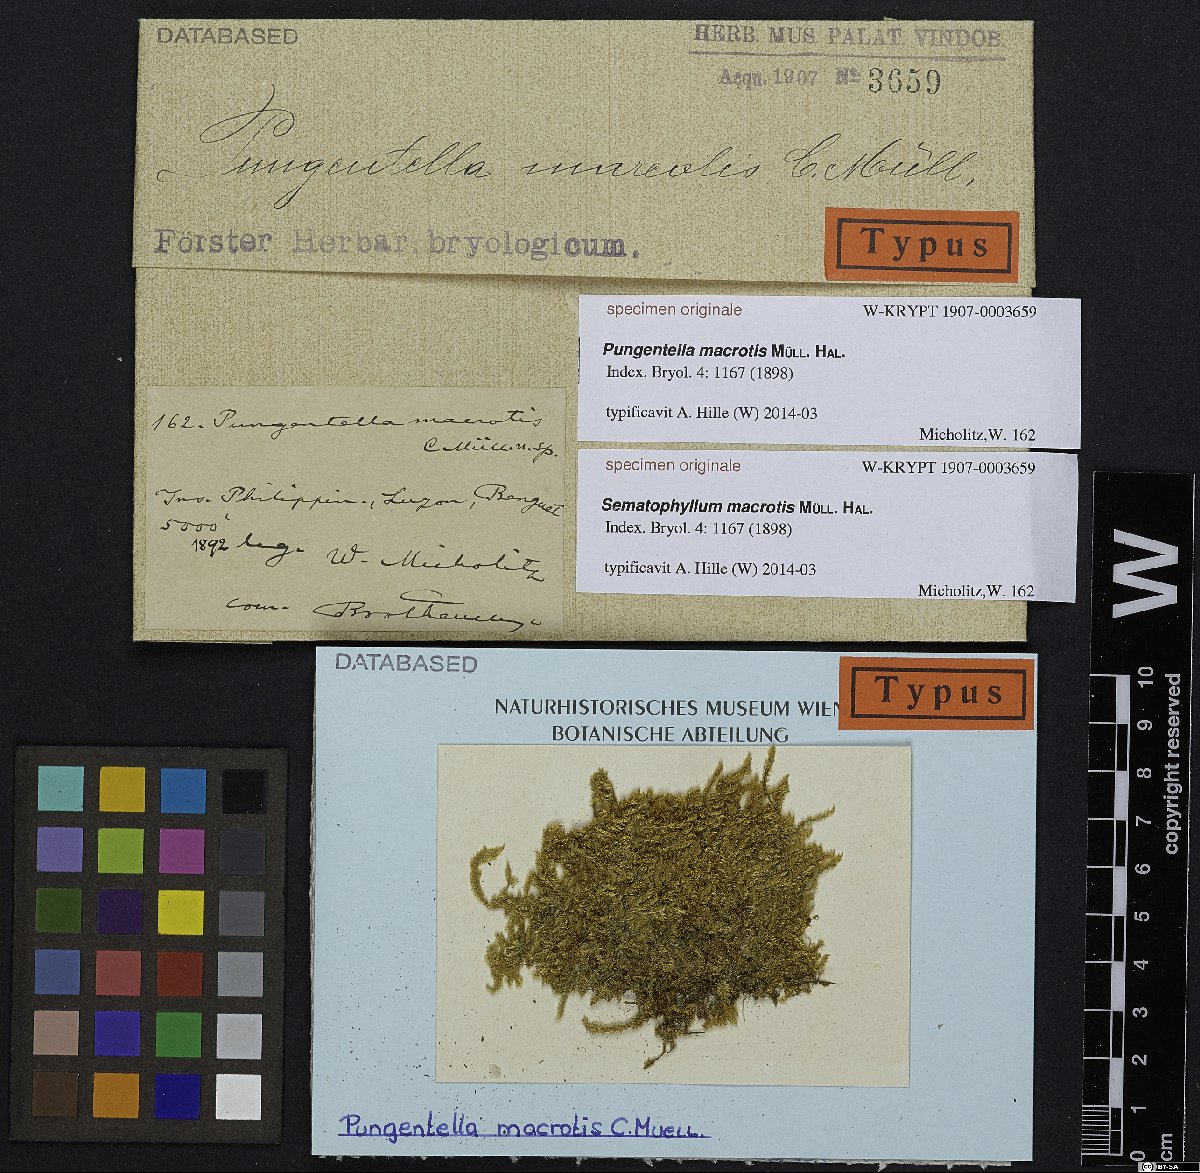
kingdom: Animalia
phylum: Nematoda
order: Dorylaimida
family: Nordiidae
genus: Pungentella
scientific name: Pungentella
